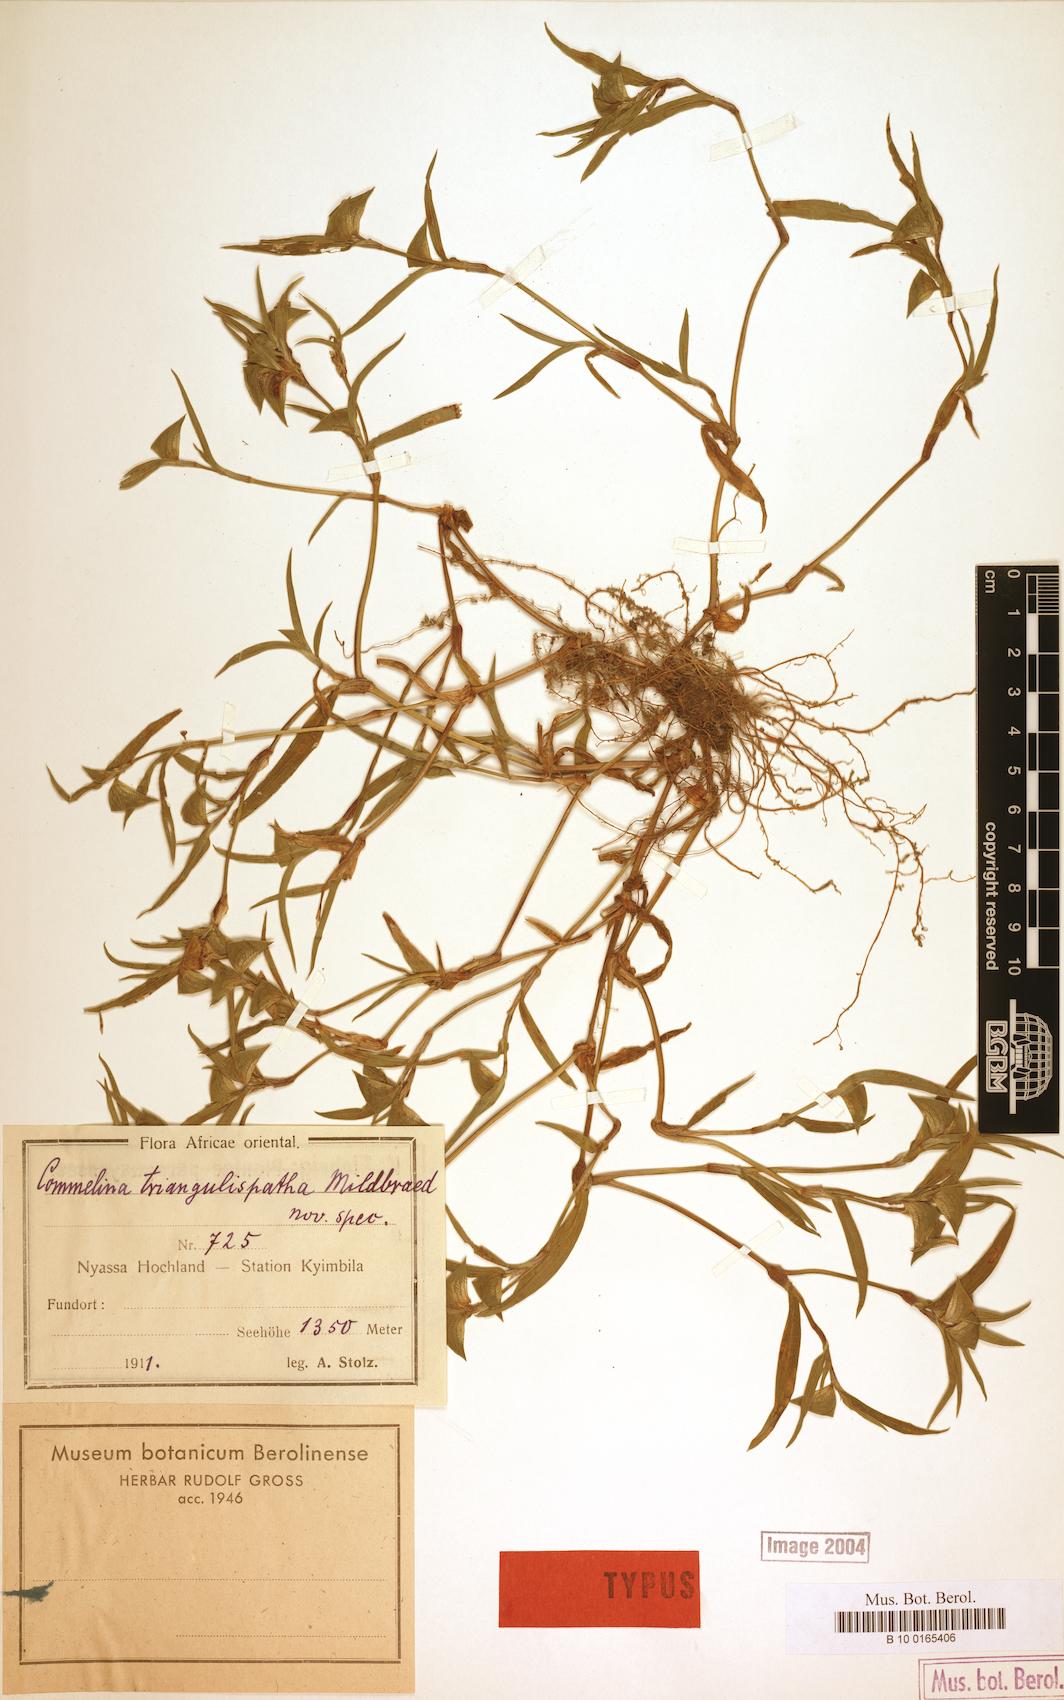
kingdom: Plantae
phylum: Tracheophyta
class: Liliopsida
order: Commelinales
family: Commelinaceae
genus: Commelina
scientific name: Commelina triangulispatha
